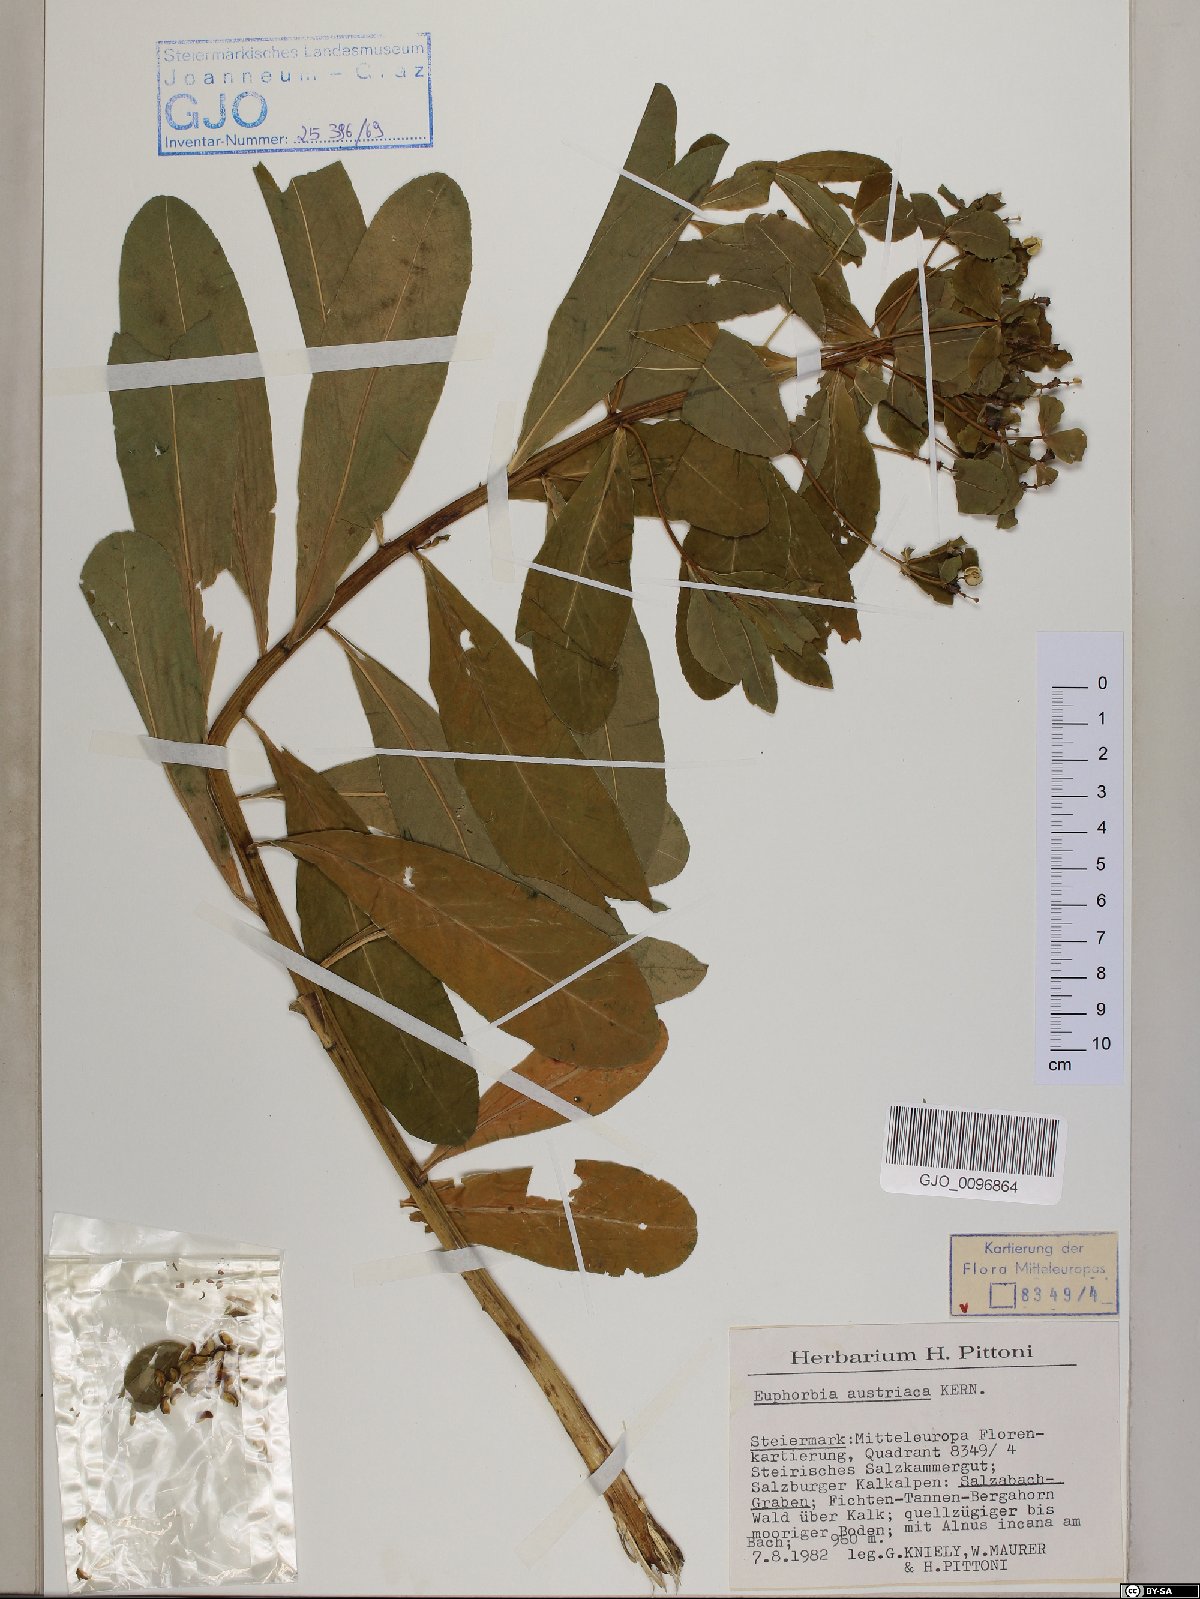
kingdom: Plantae
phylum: Tracheophyta
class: Magnoliopsida
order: Malpighiales
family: Euphorbiaceae
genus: Euphorbia
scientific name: Euphorbia austriaca
